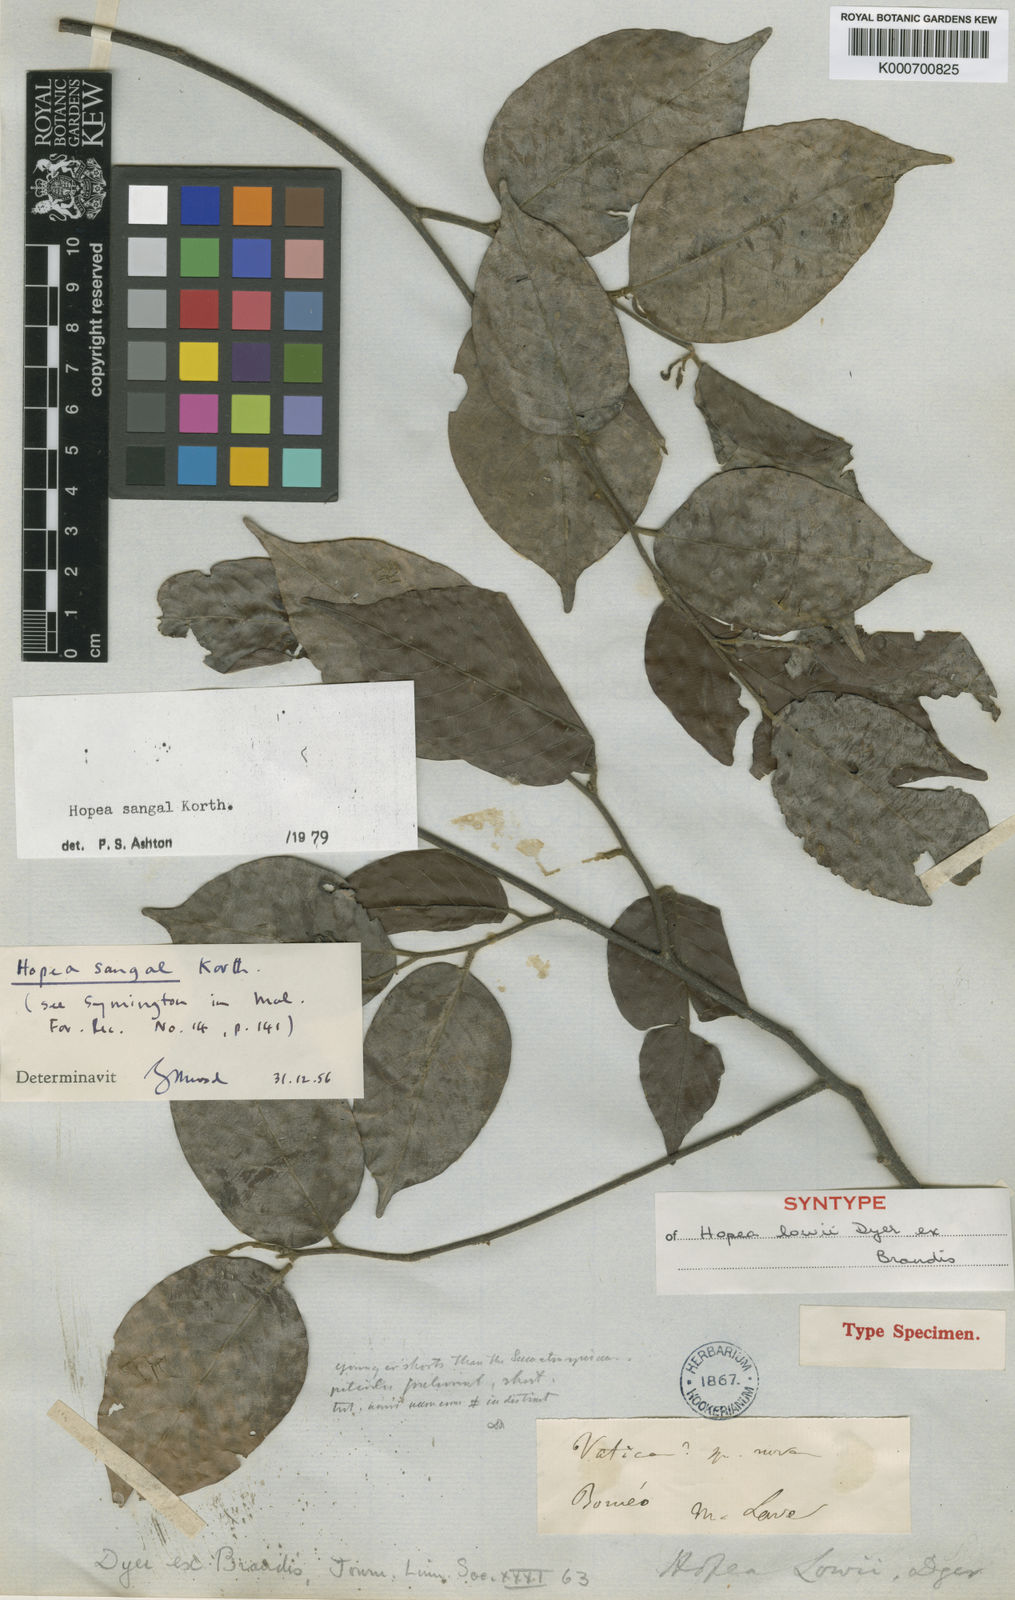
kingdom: Plantae
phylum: Tracheophyta
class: Magnoliopsida
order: Malvales
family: Dipterocarpaceae
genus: Hopea
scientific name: Hopea sangal
